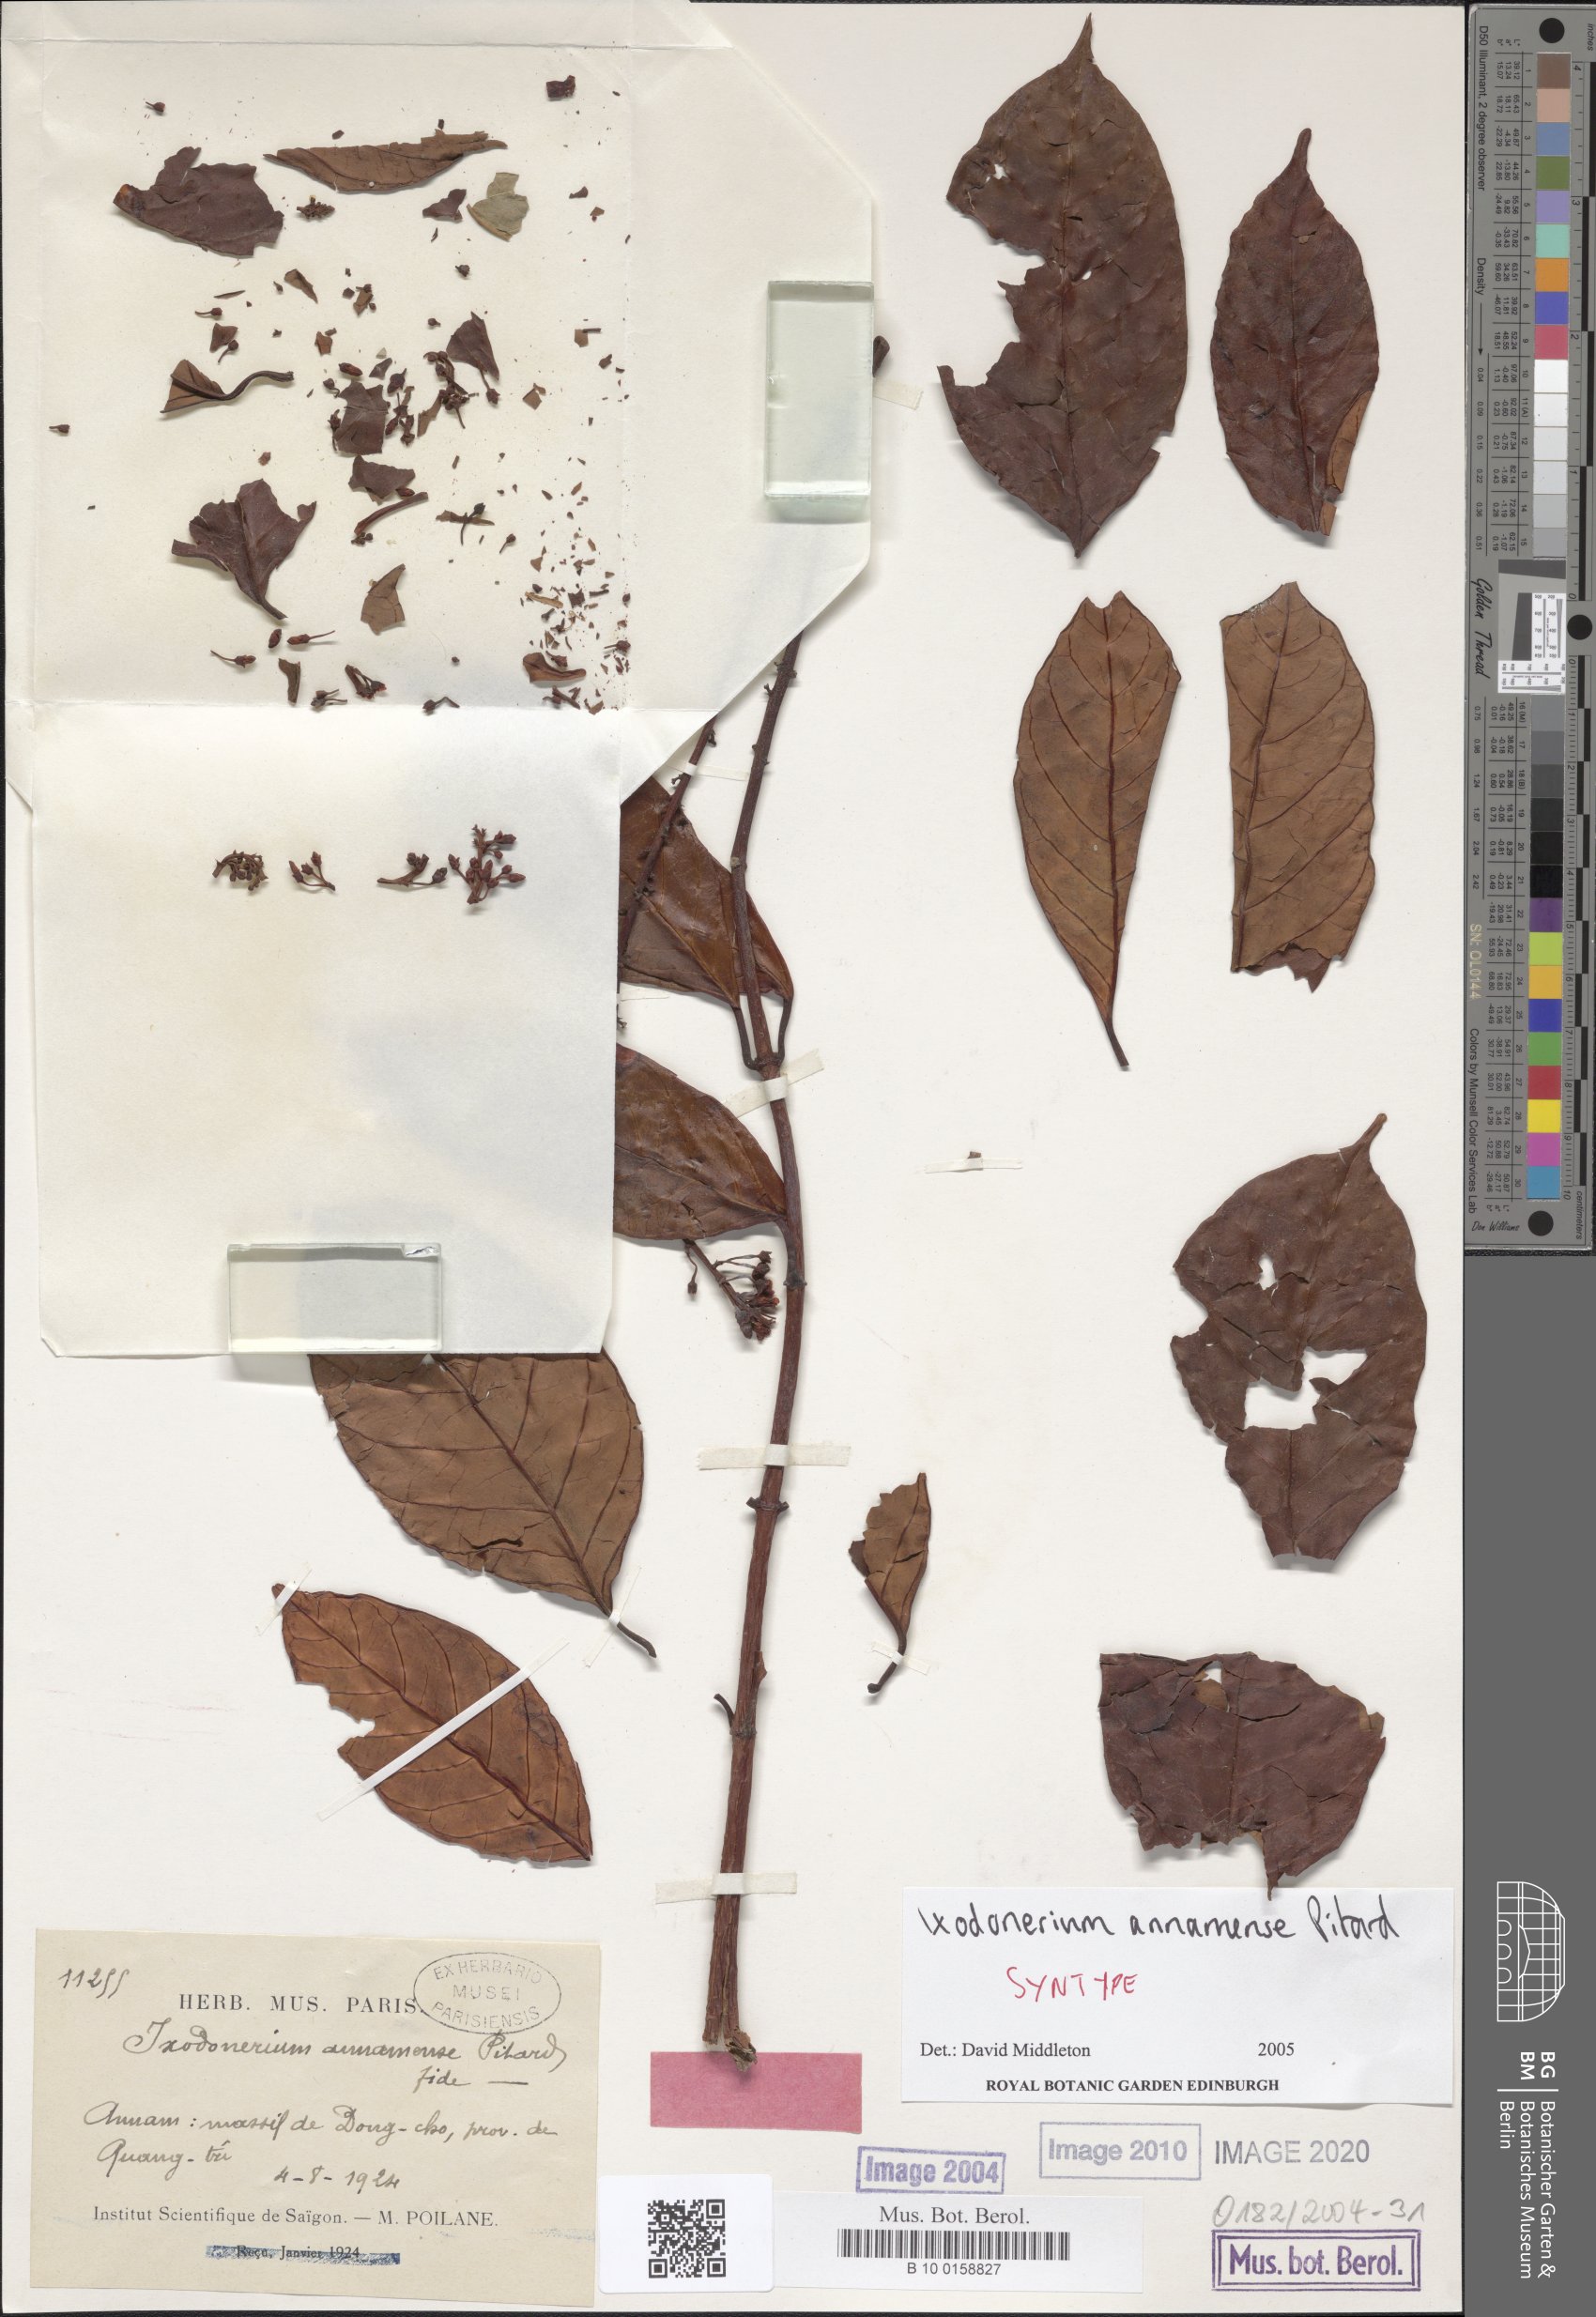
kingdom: Plantae
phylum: Tracheophyta
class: Magnoliopsida
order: Gentianales
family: Apocynaceae
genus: Ixodonerium
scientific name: Ixodonerium annamense
